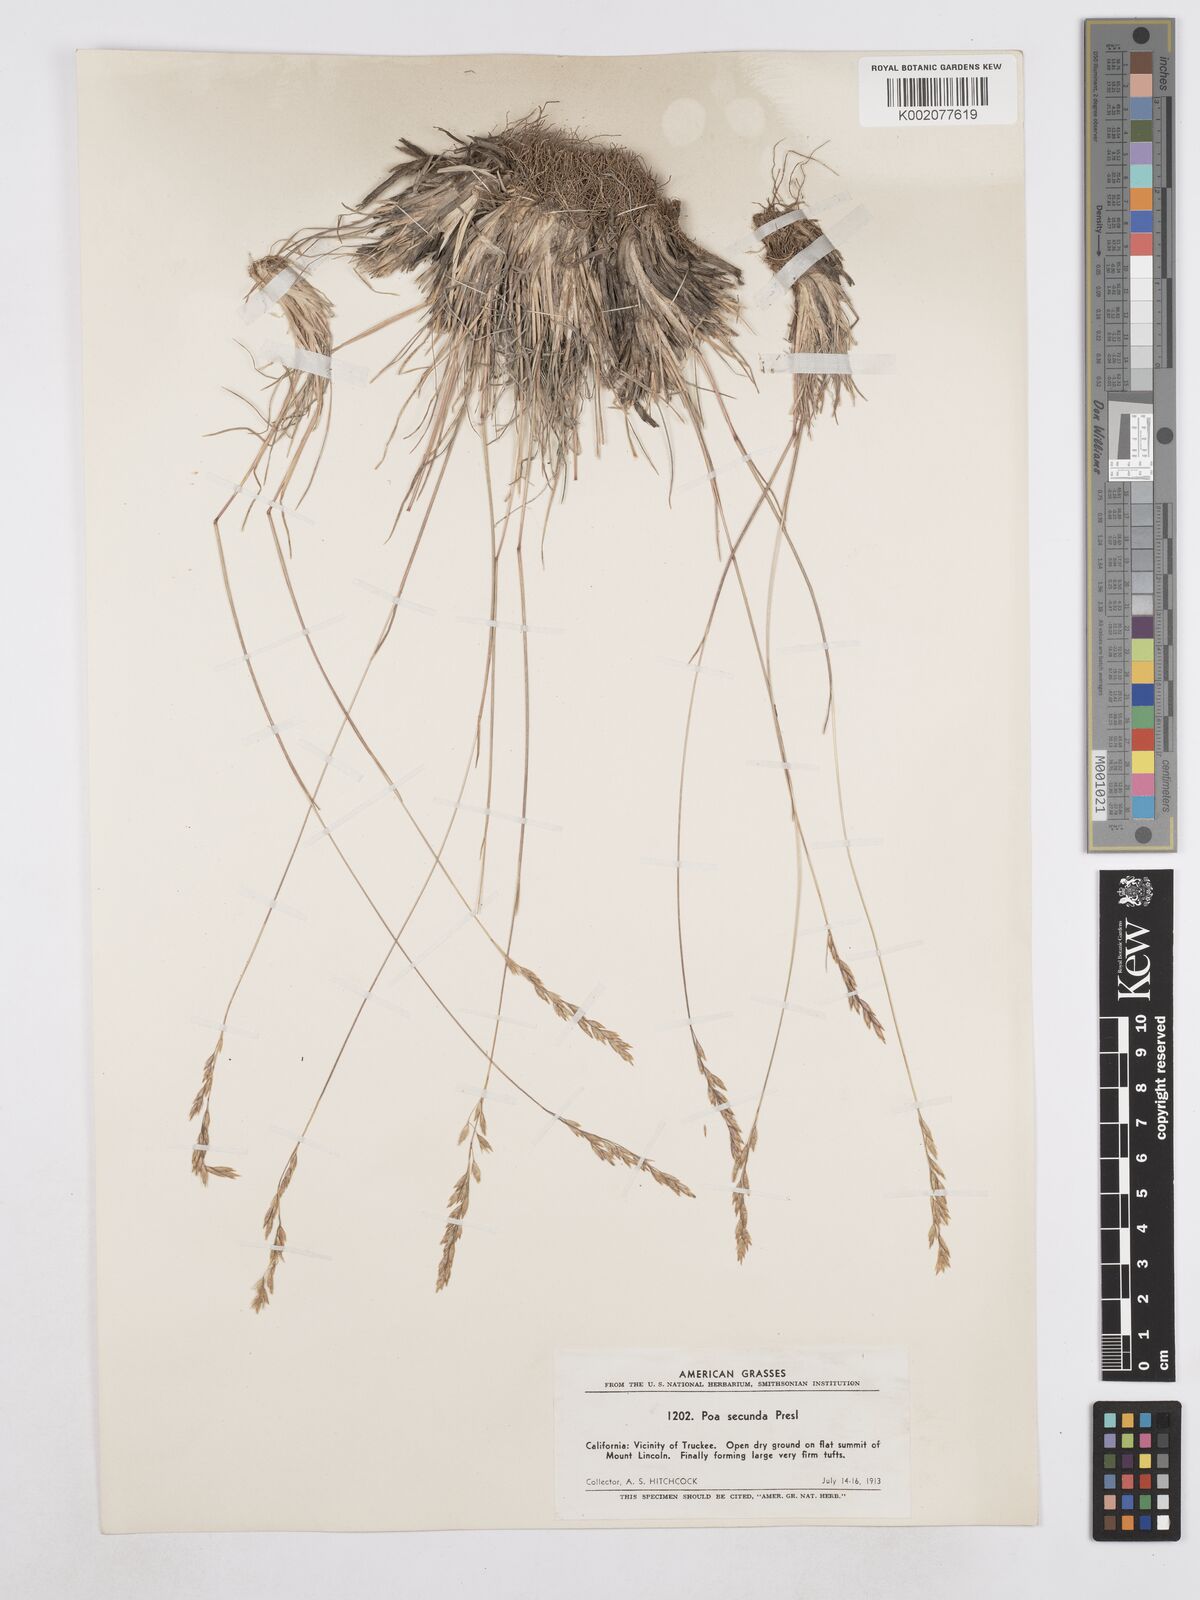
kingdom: Plantae
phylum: Tracheophyta
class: Liliopsida
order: Poales
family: Poaceae
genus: Poa
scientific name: Poa secunda
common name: Sandberg bluegrass
